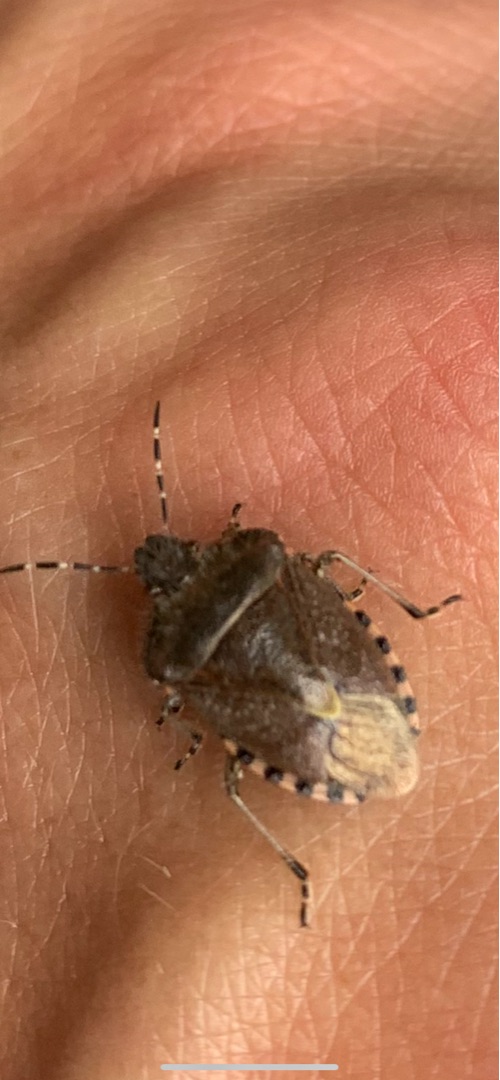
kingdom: Animalia
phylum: Arthropoda
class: Insecta
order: Hemiptera
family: Pentatomidae
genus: Dolycoris
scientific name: Dolycoris baccarum
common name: Almindelig bærtæge
